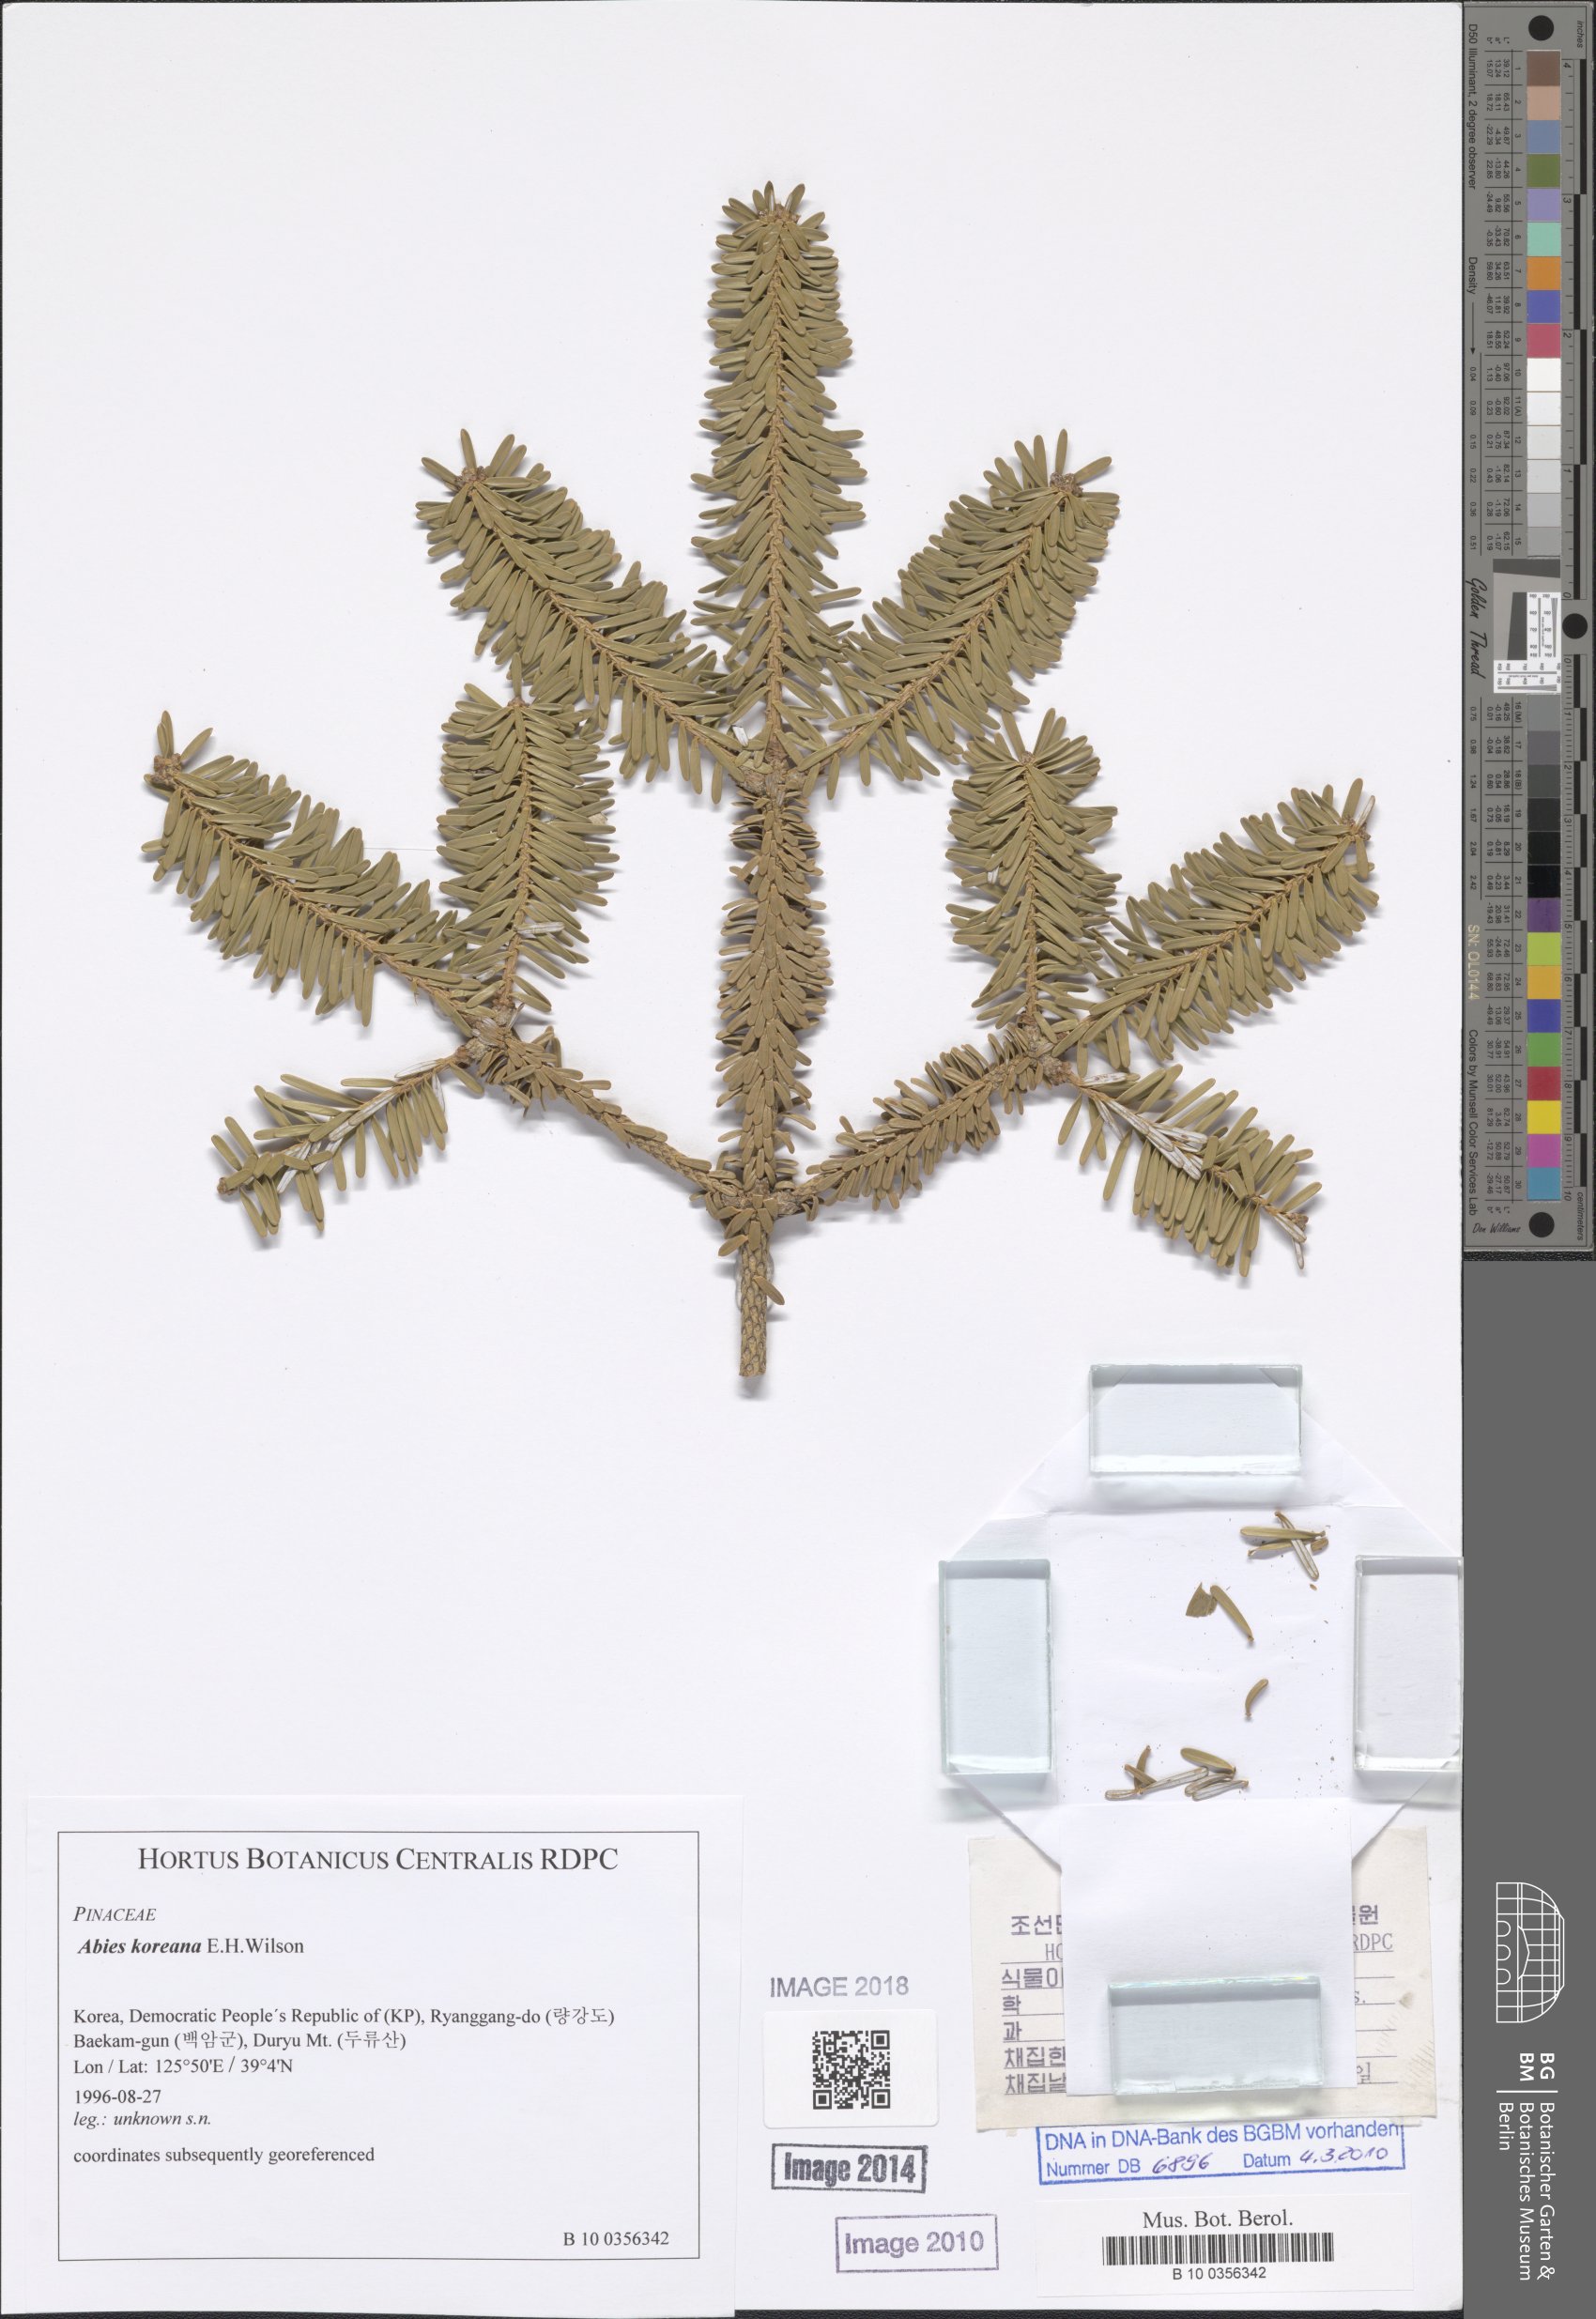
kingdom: Plantae
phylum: Tracheophyta
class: Pinopsida
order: Pinales
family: Pinaceae
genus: Abies
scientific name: Abies koreana
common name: Korean fir
